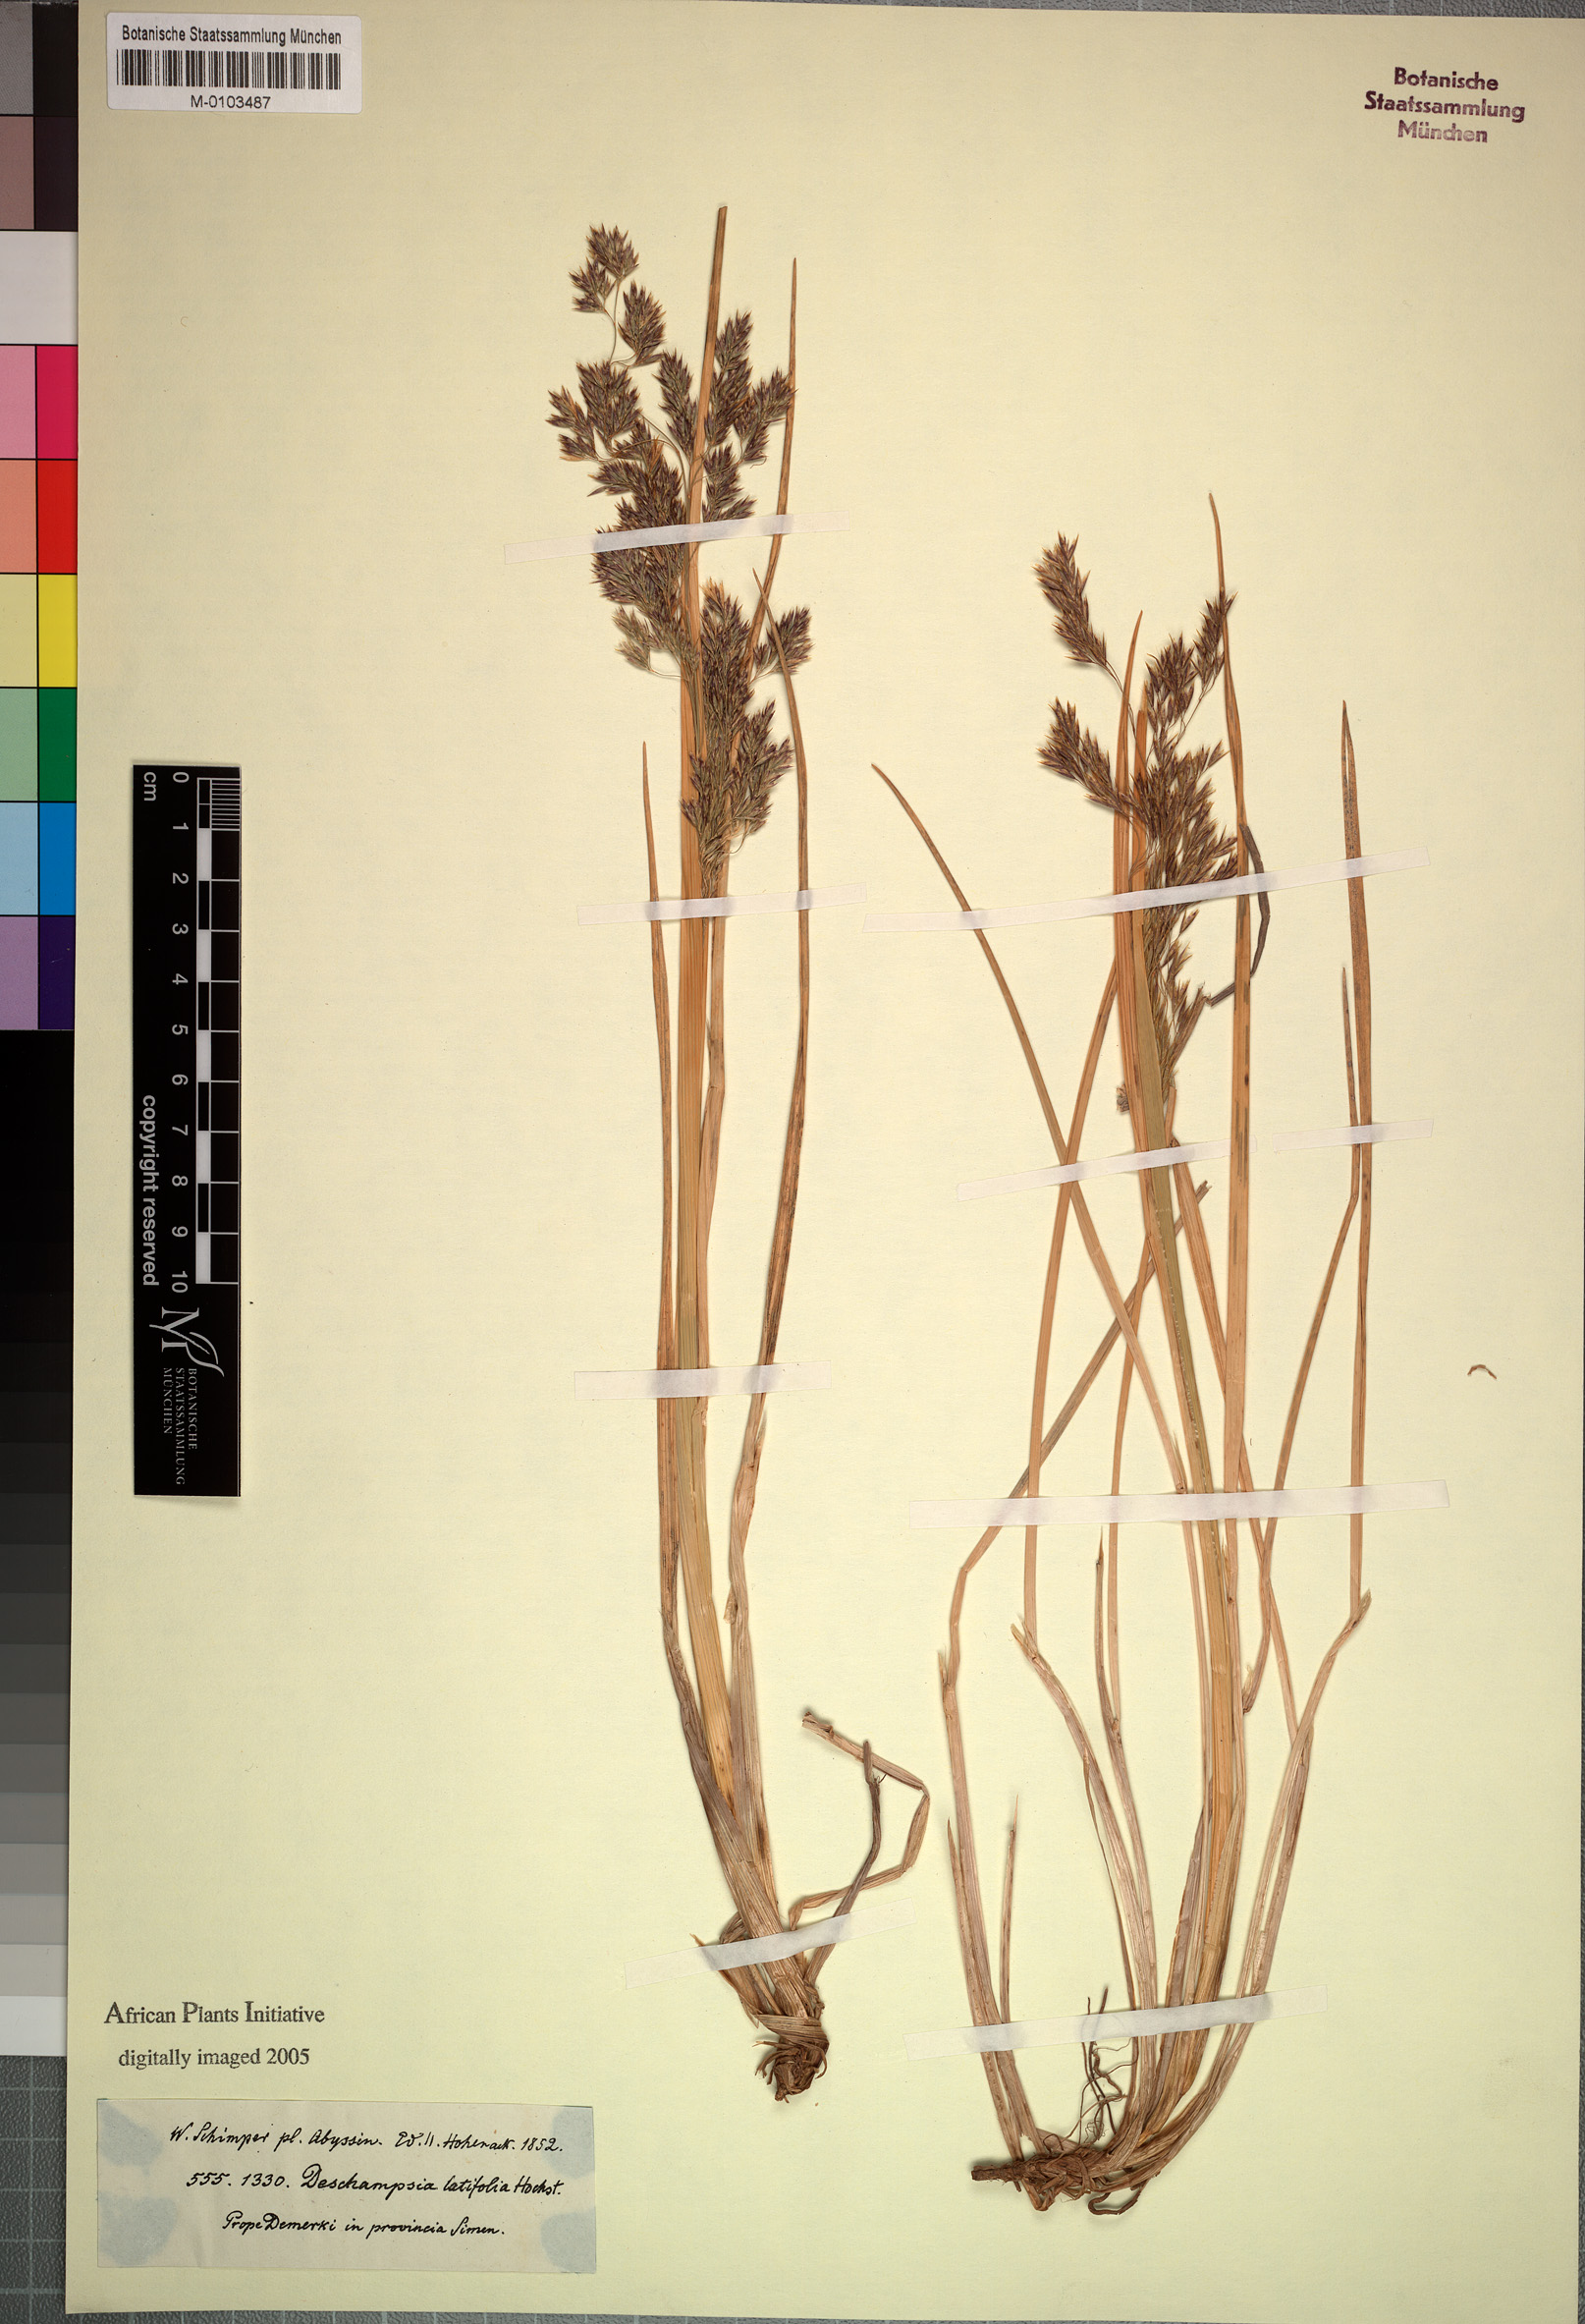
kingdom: Plantae
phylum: Tracheophyta
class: Liliopsida
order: Poales
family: Poaceae
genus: Deschampsia
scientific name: Deschampsia cespitosa
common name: Tufted hair-grass
